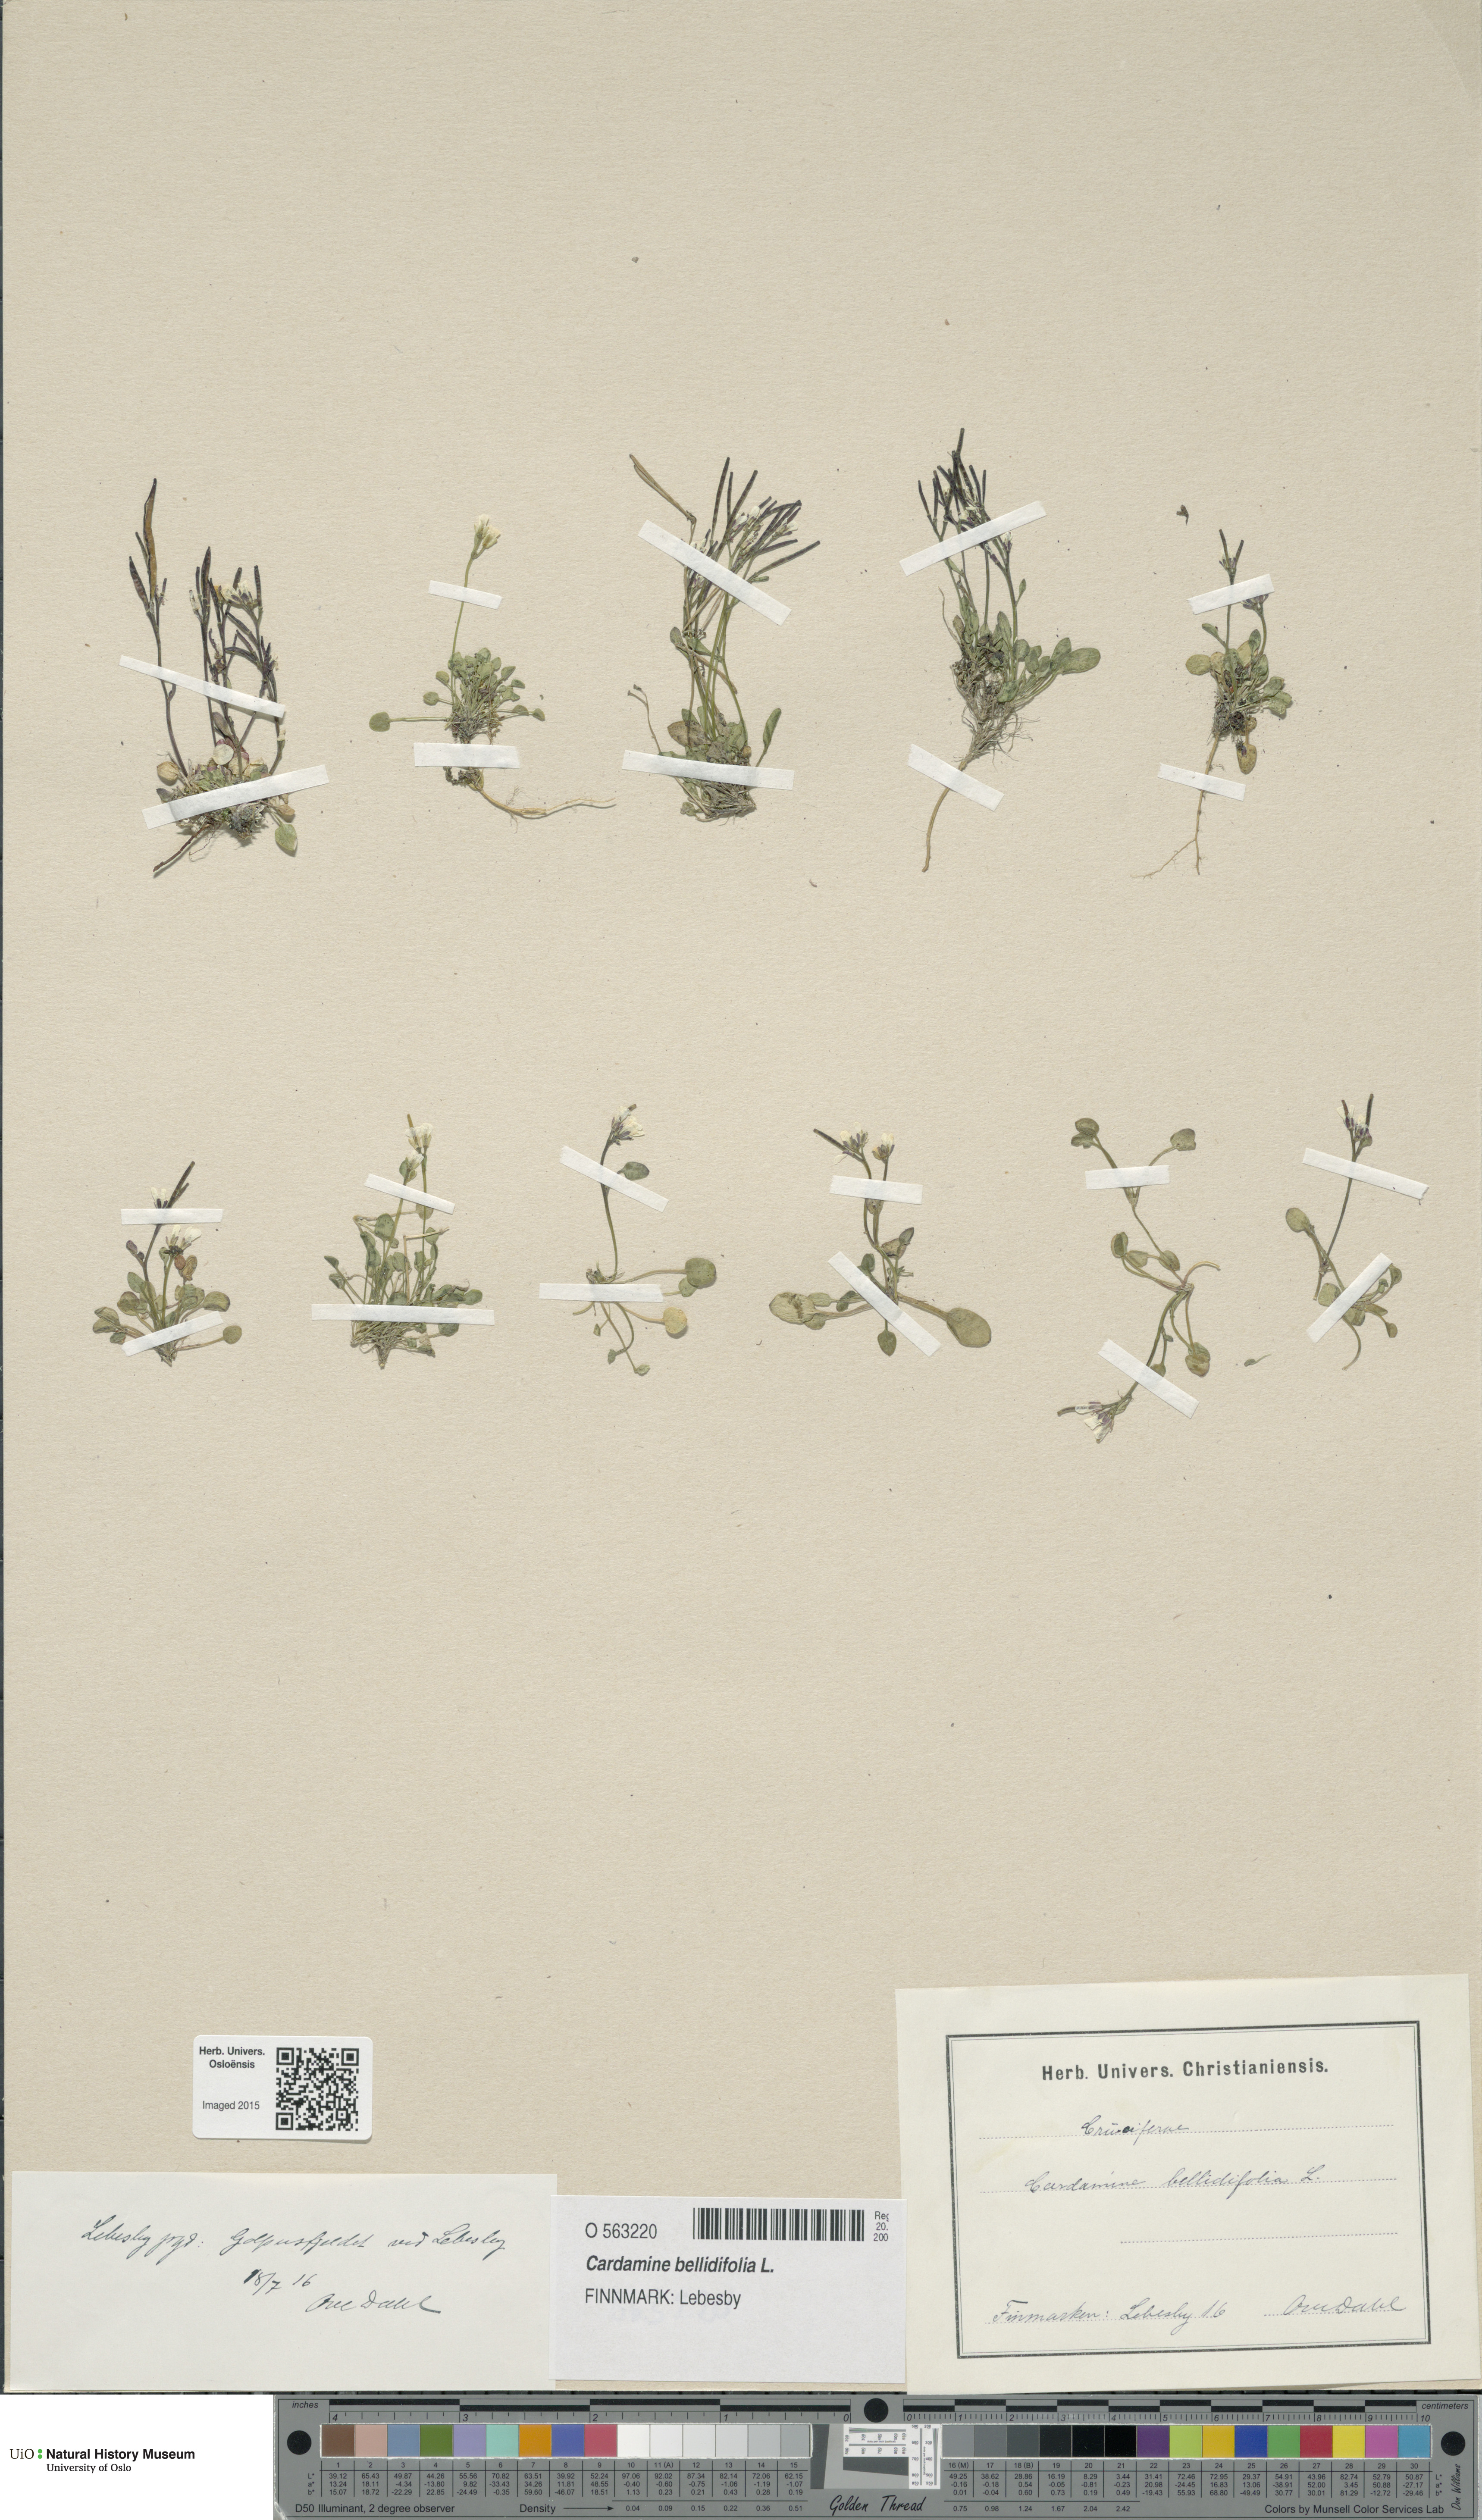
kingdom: Plantae
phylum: Tracheophyta
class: Magnoliopsida
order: Brassicales
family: Brassicaceae
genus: Cardamine
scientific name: Cardamine bellidifolia
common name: Alpine bittercress
